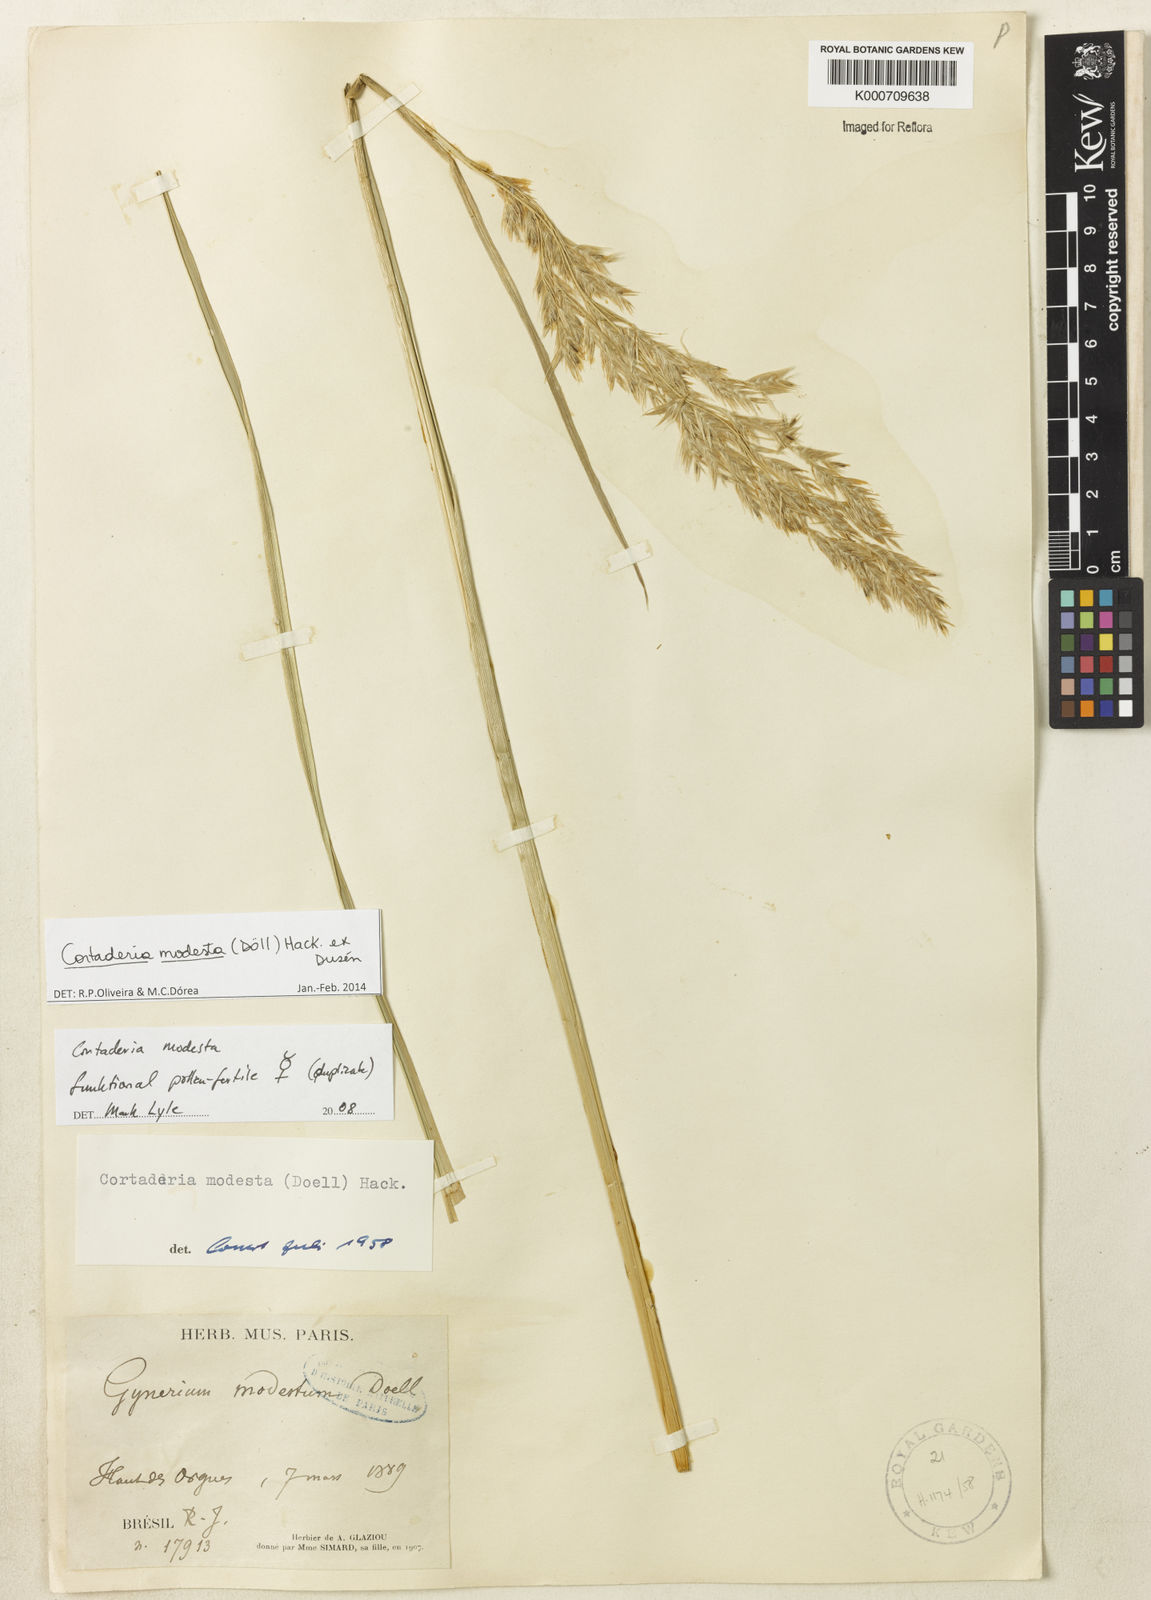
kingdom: Plantae
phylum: Tracheophyta
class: Liliopsida
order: Poales
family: Poaceae
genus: Cortaderia
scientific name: Cortaderia
